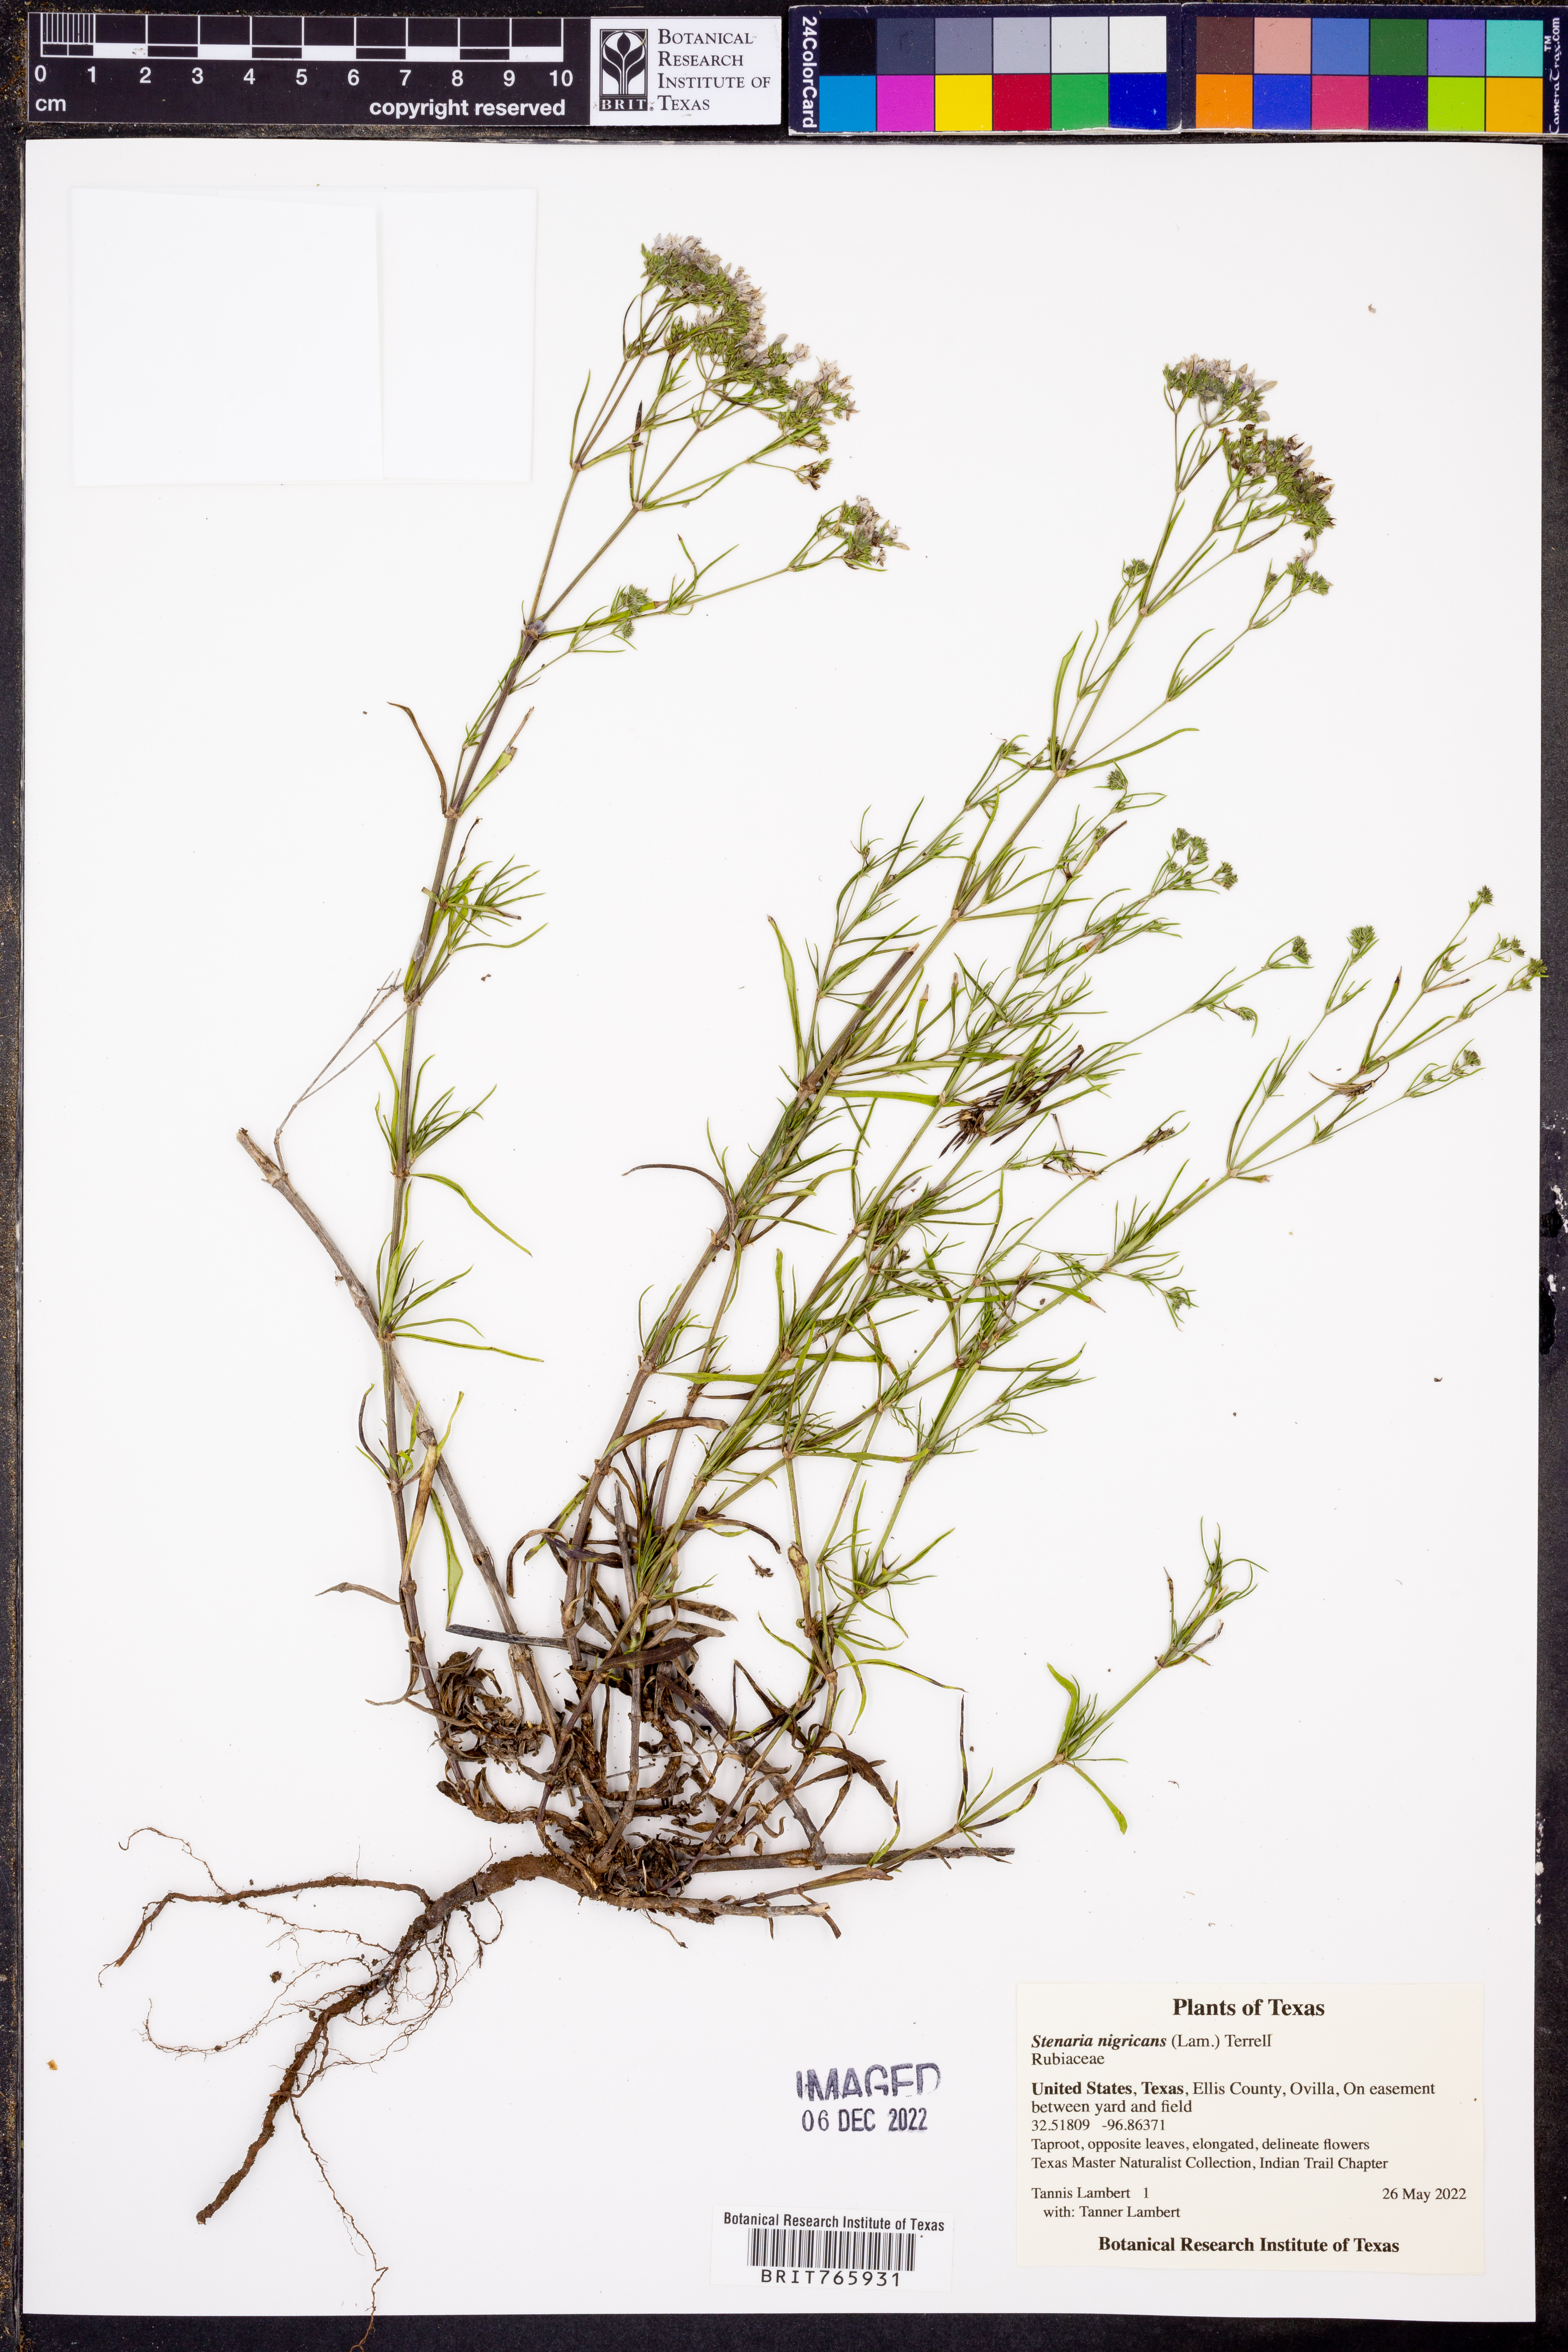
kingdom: Plantae
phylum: Tracheophyta
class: Magnoliopsida
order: Gentianales
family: Rubiaceae
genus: Stenaria
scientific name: Stenaria nigricans
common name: Diamondflowers
